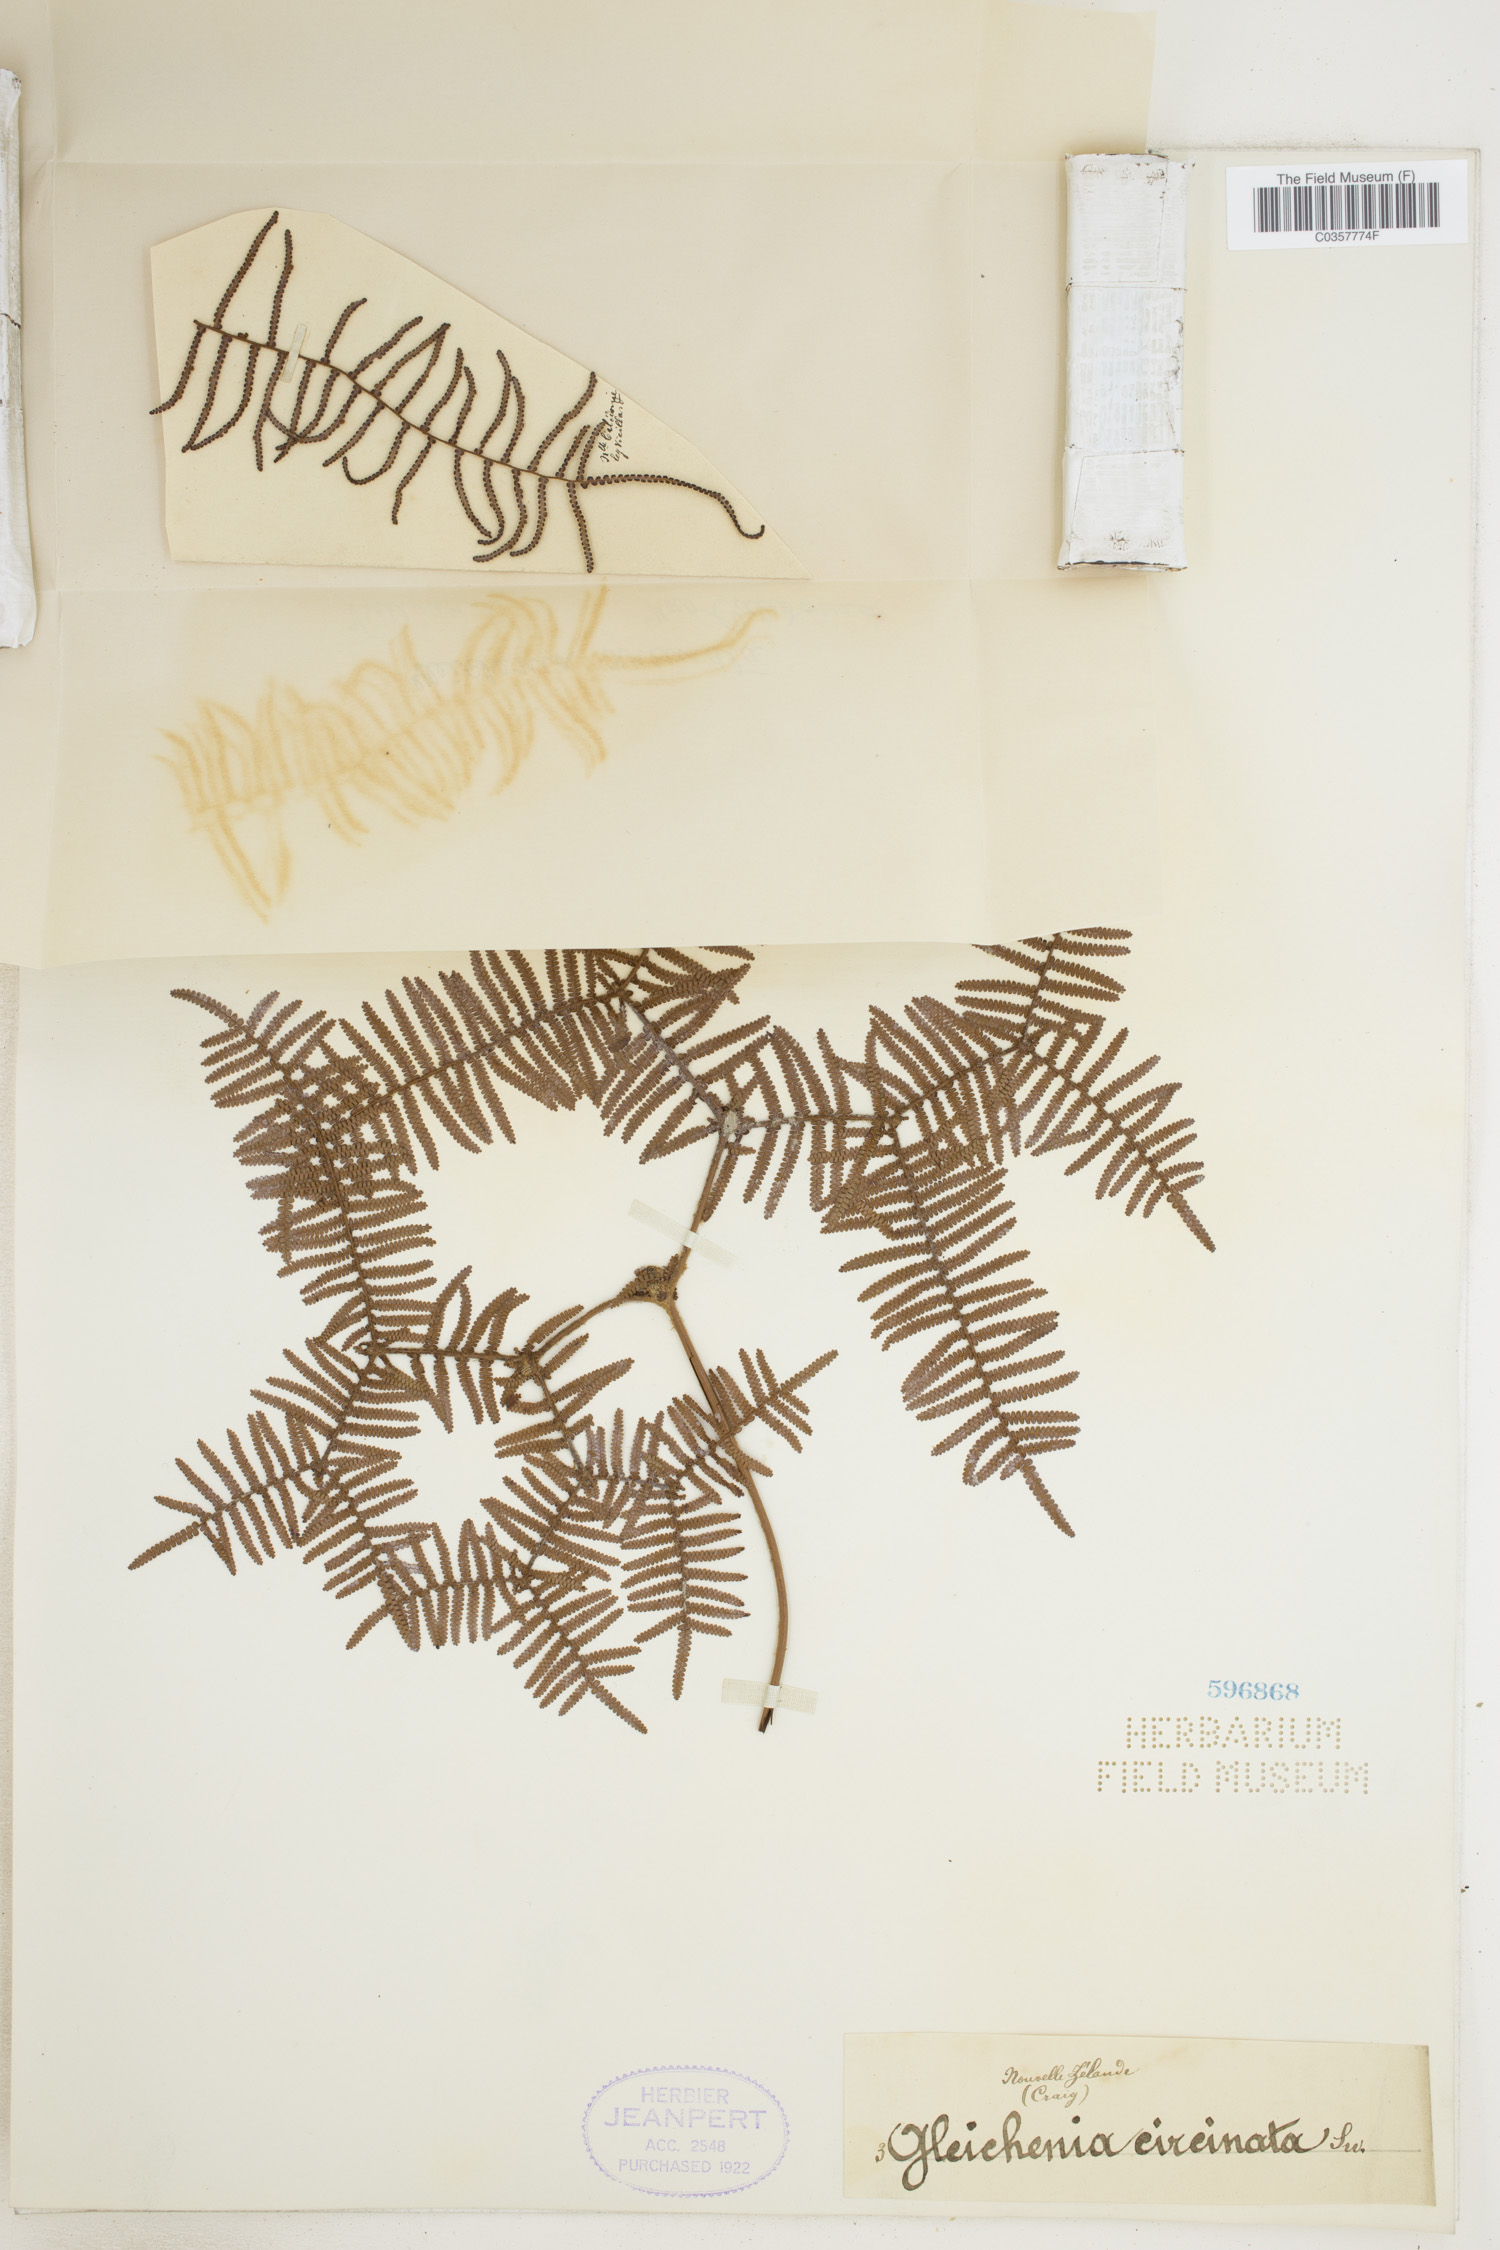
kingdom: Plantae
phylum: Tracheophyta
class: Polypodiopsida
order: Gleicheniales
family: Gleicheniaceae
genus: Gleichenia
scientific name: Gleichenia circinnata
